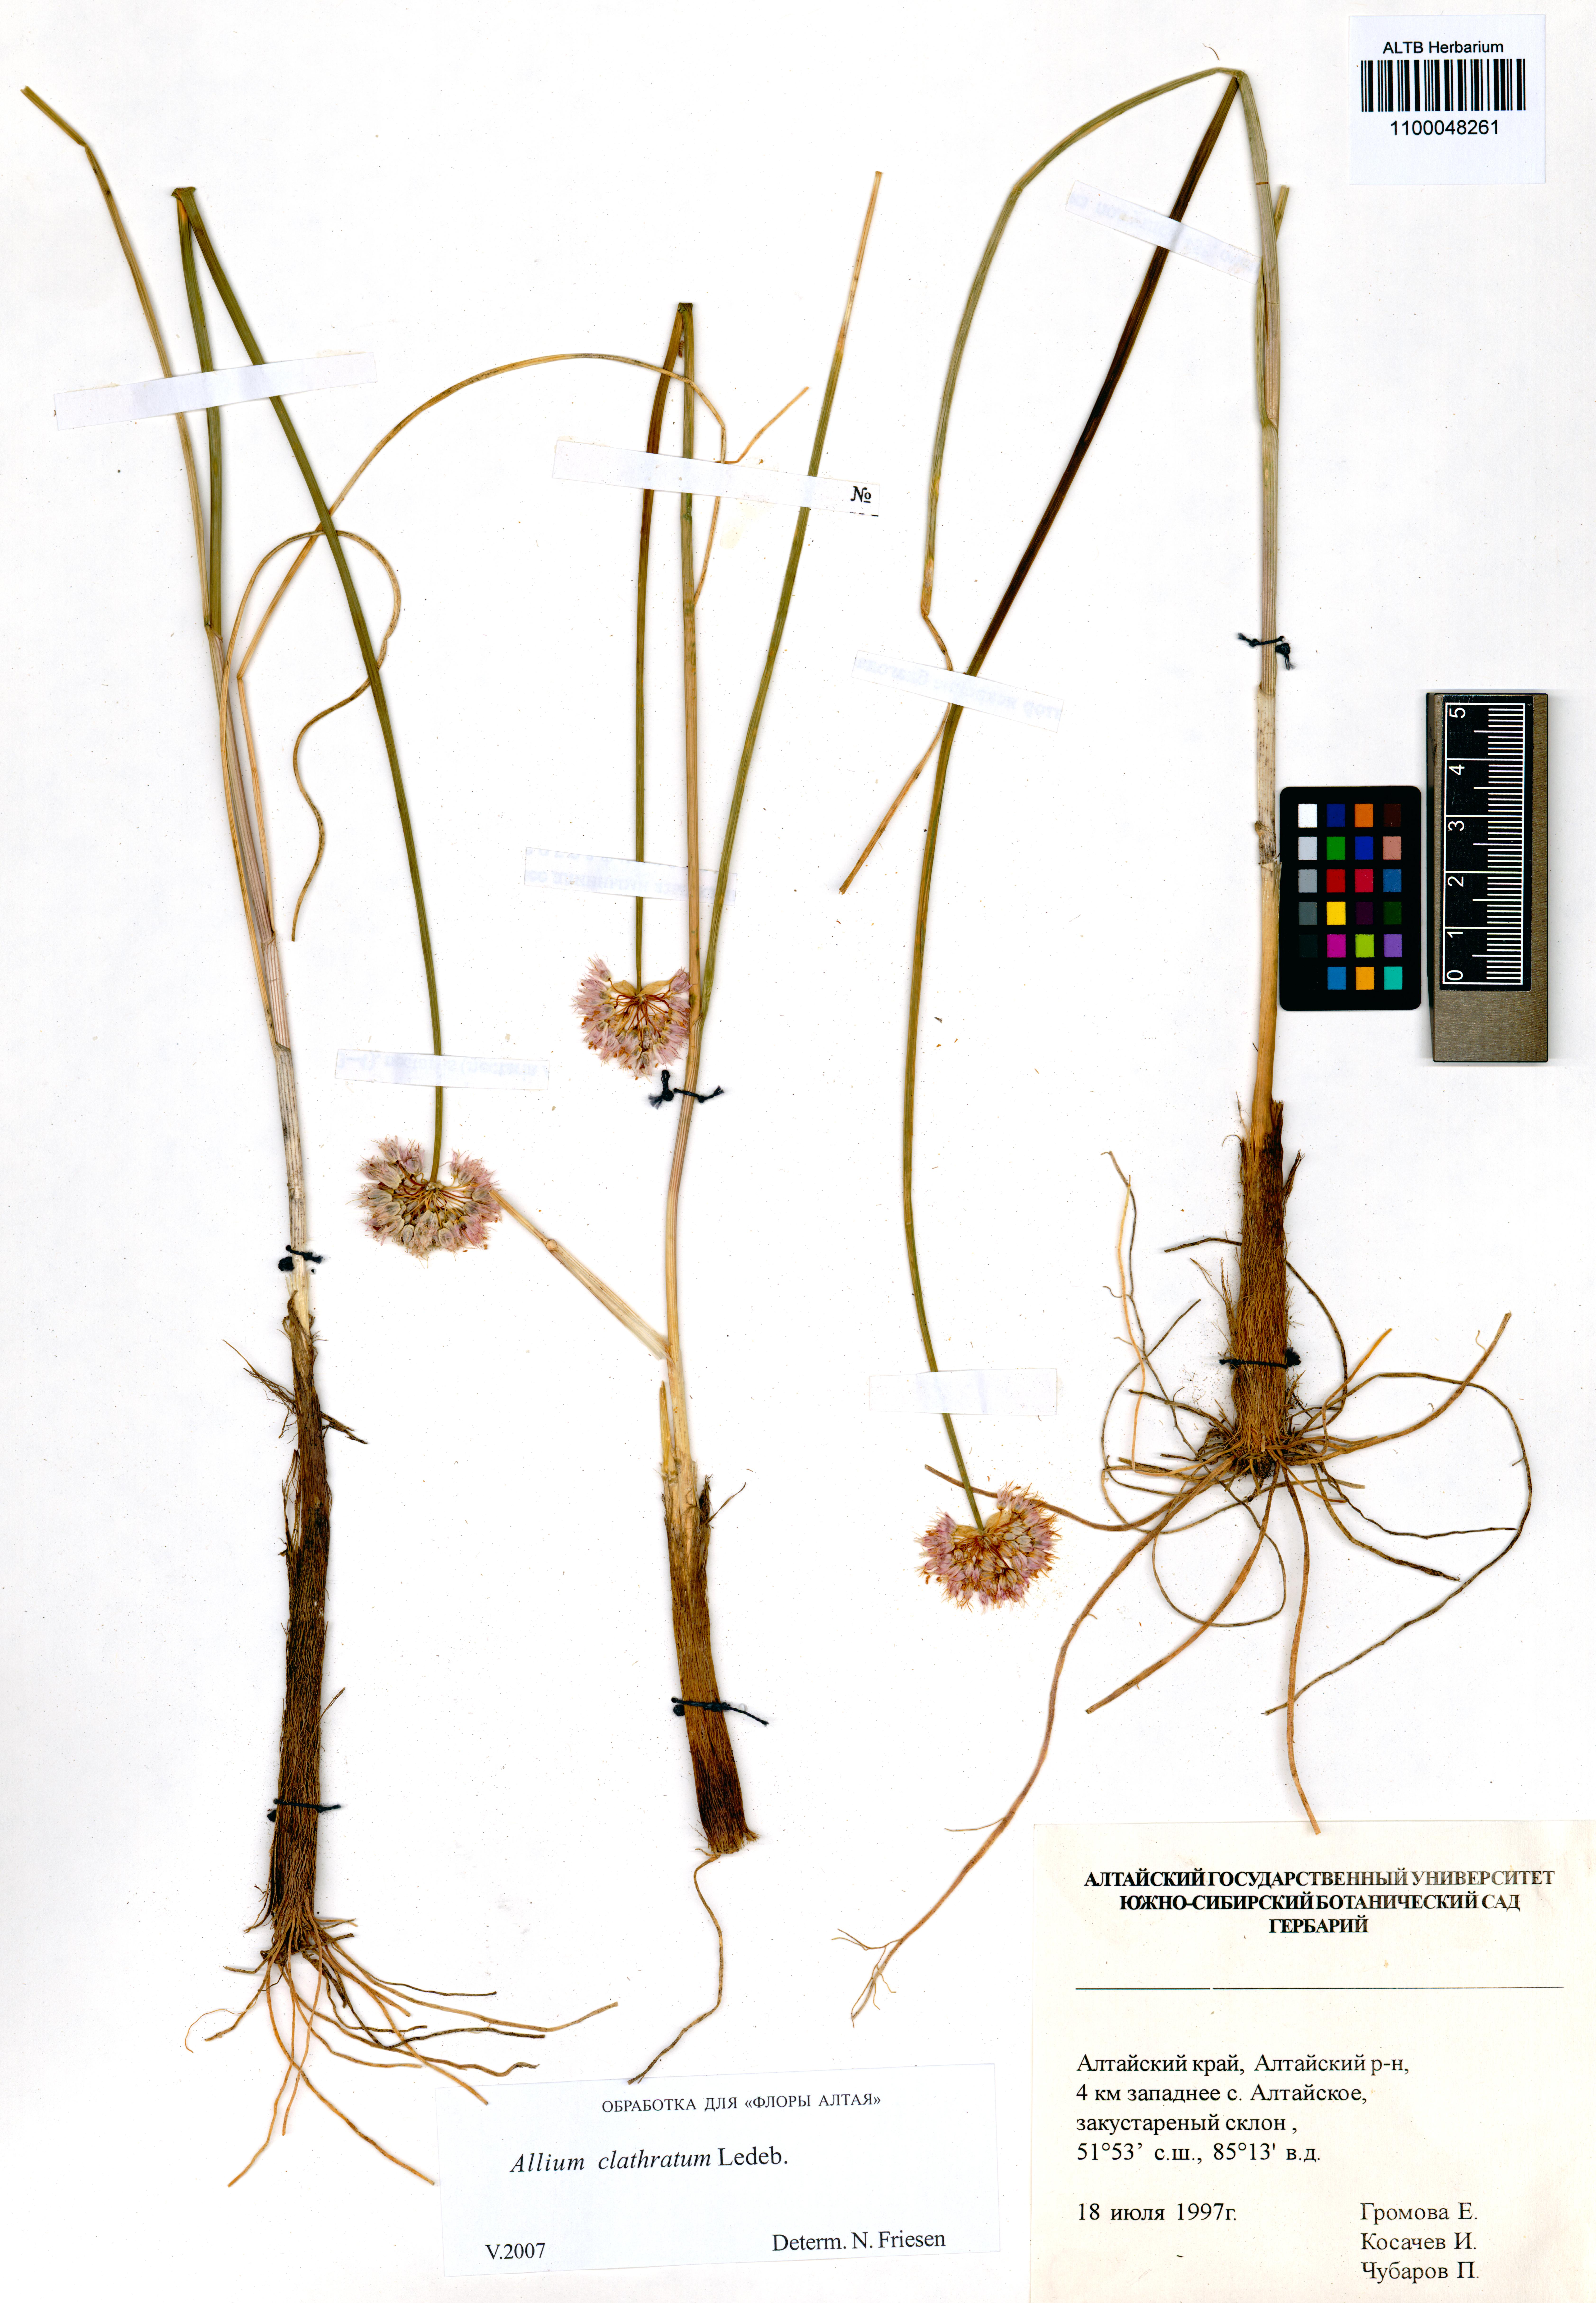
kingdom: Plantae
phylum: Tracheophyta
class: Liliopsida
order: Asparagales
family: Amaryllidaceae
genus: Allium
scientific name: Allium clathratum
